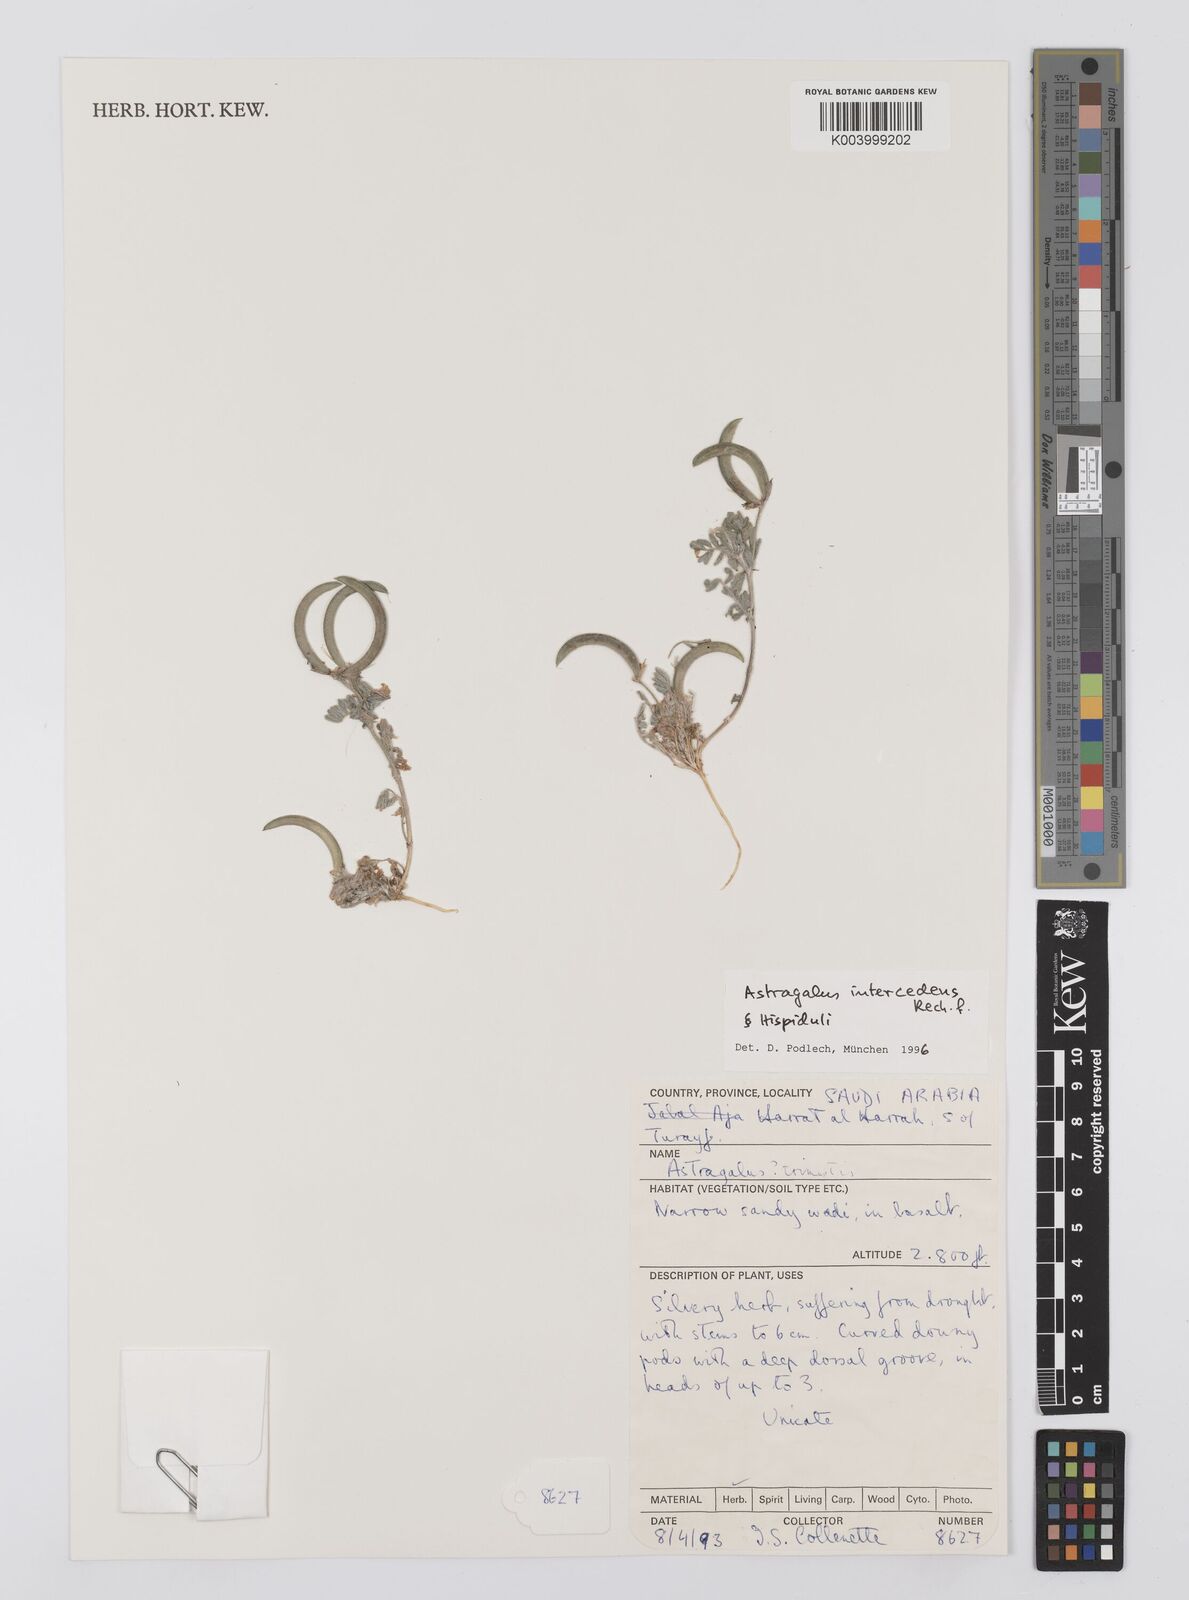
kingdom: Plantae
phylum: Tracheophyta
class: Magnoliopsida
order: Fabales
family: Fabaceae
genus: Astragalus
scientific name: Astragalus intercedens
